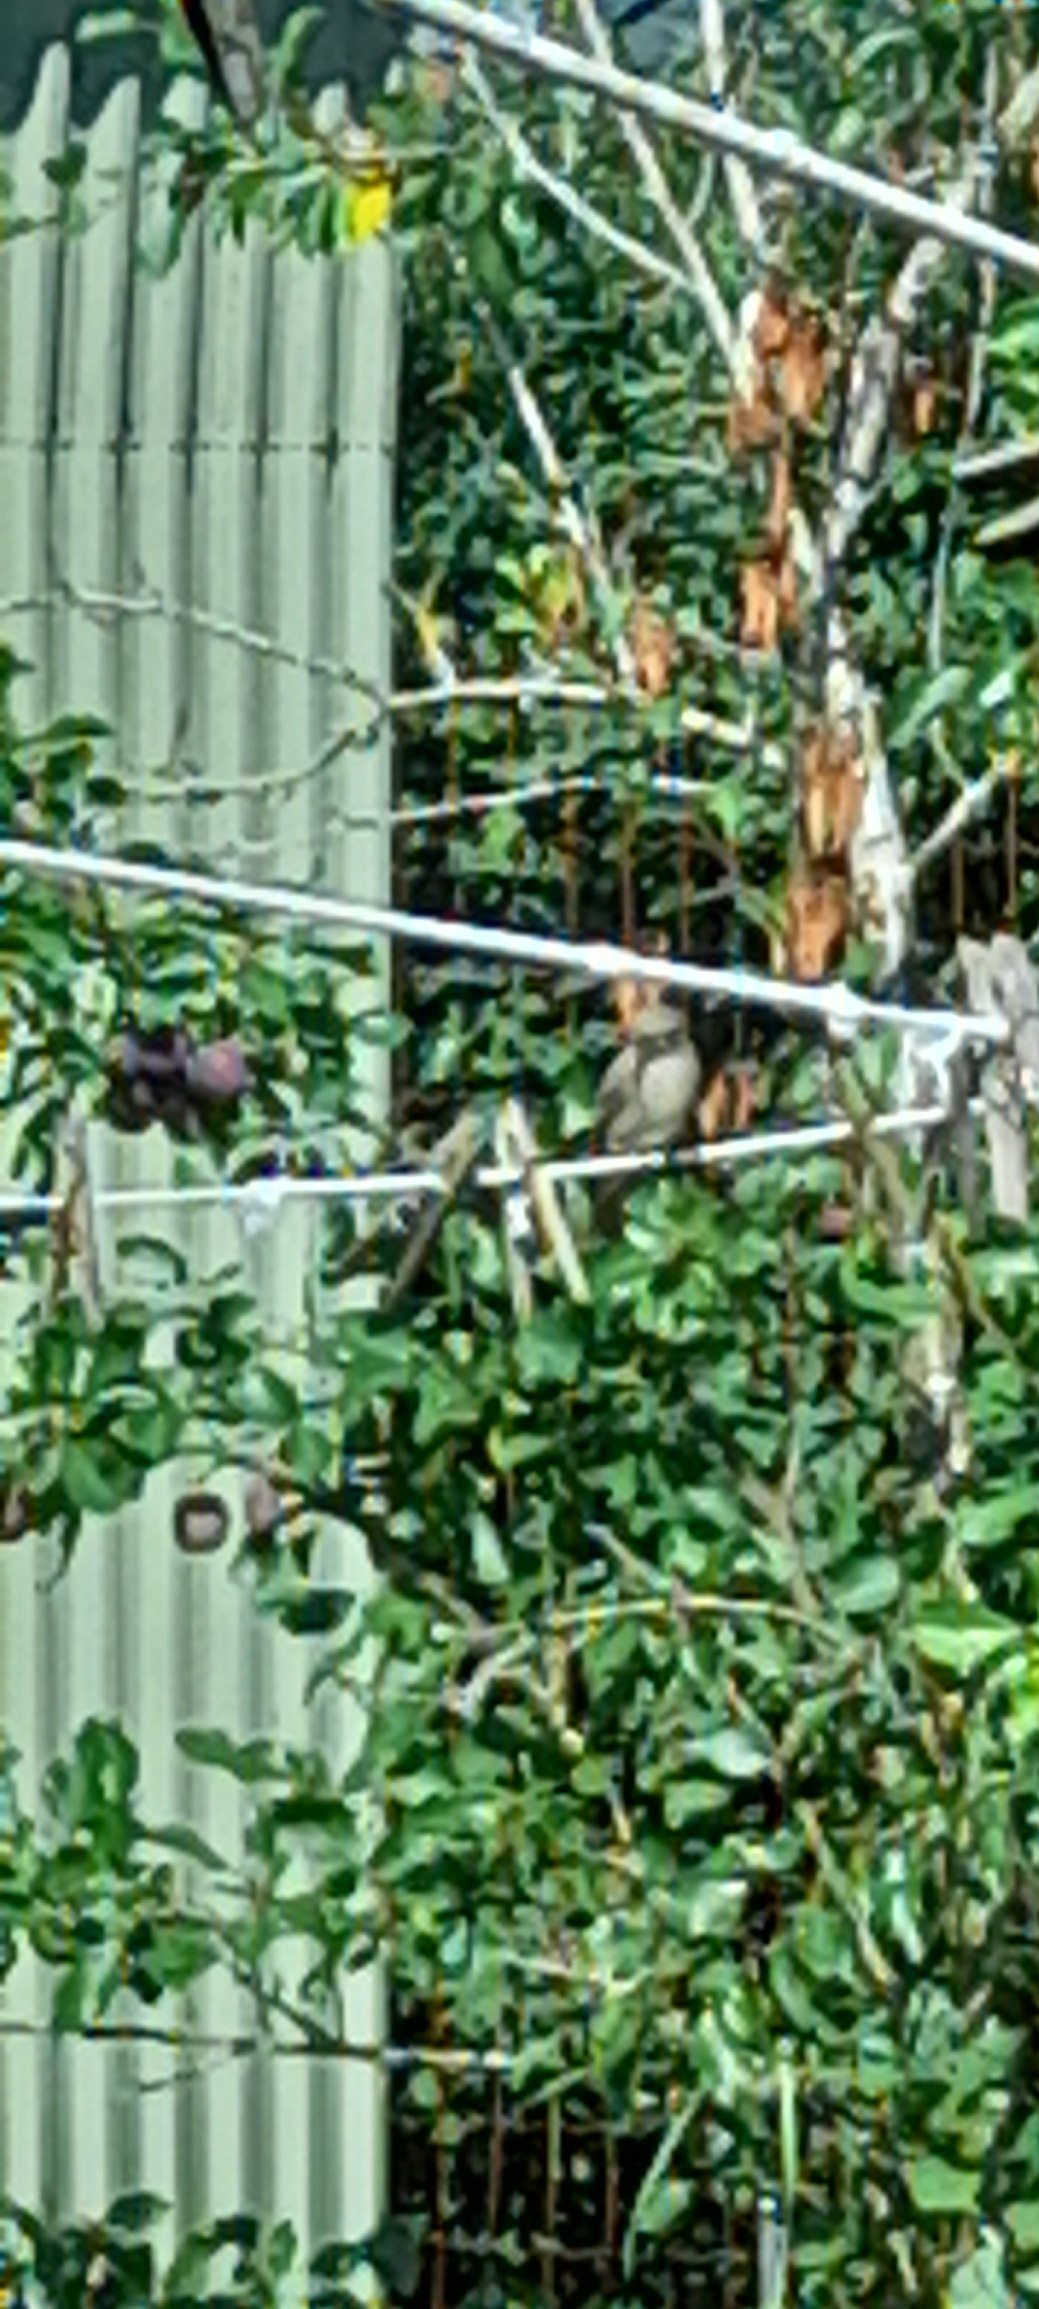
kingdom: Animalia
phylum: Chordata
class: Aves
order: Passeriformes
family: Muscicapidae
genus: Muscicapa
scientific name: Muscicapa striata
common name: Grå fluesnapper
